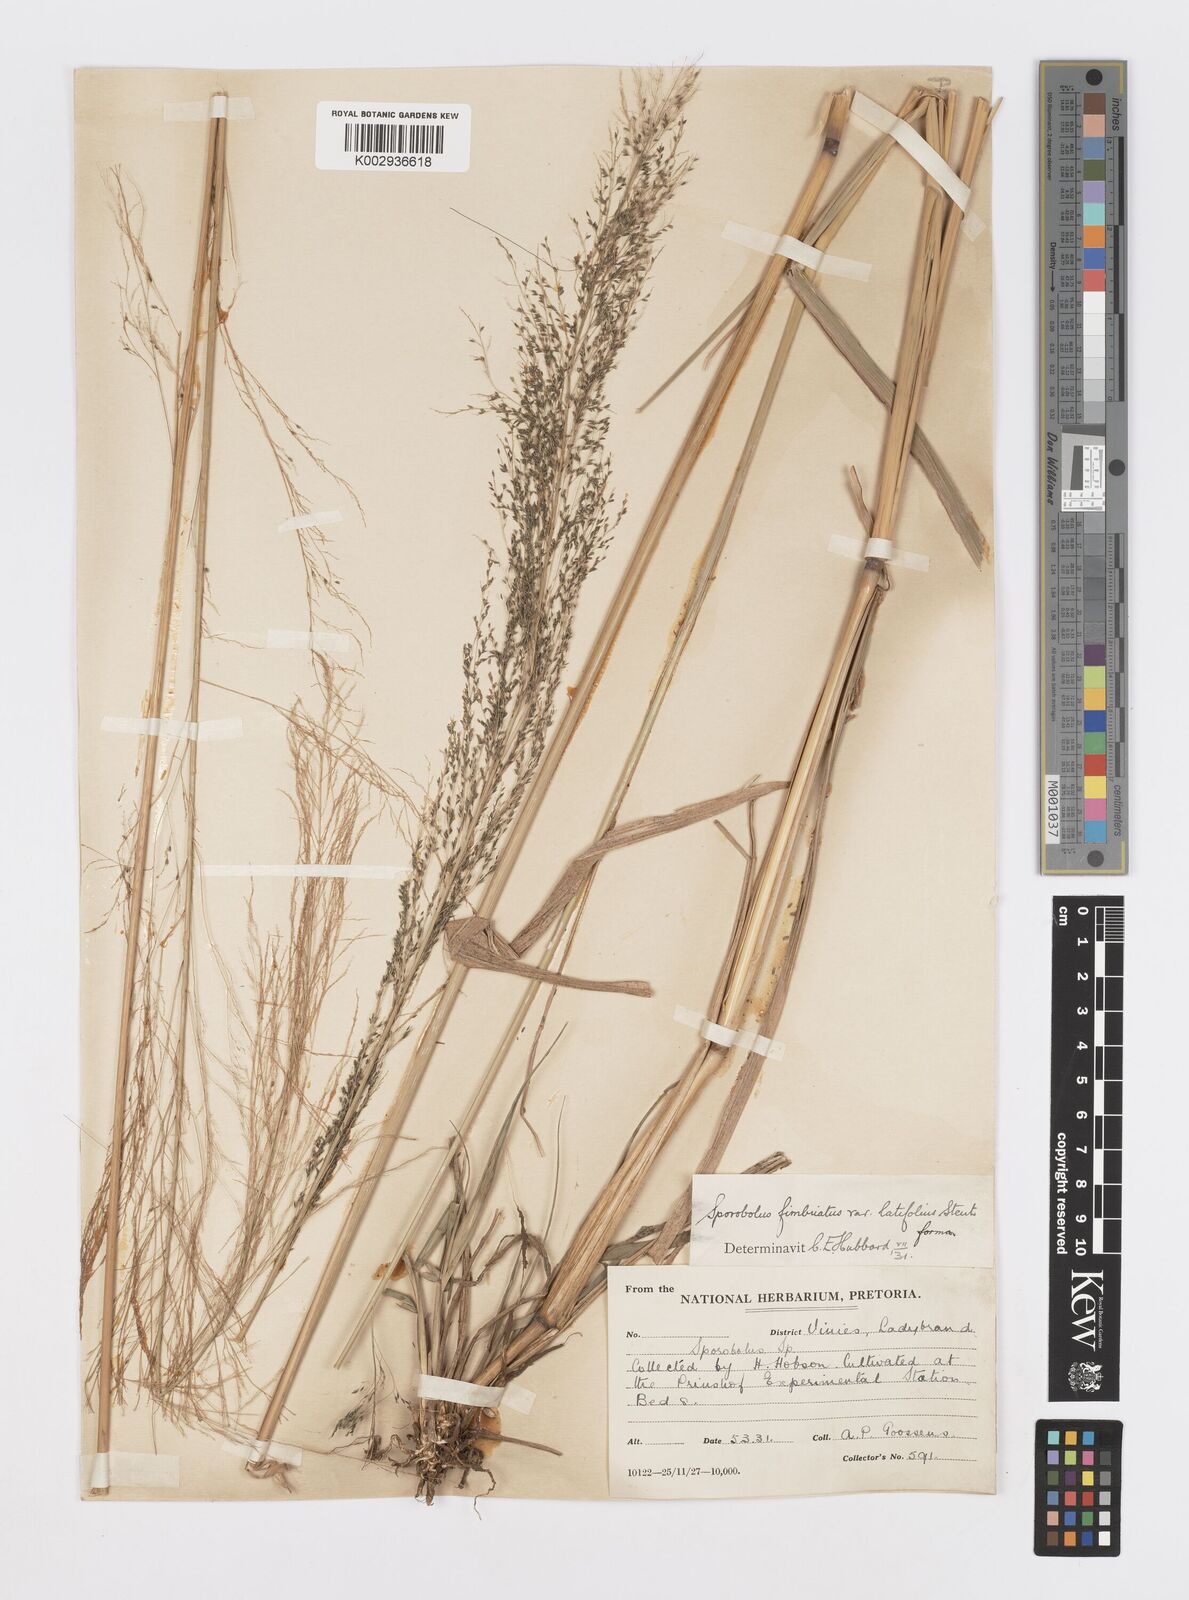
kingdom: Plantae
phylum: Tracheophyta
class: Liliopsida
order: Poales
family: Poaceae
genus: Sporobolus
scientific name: Sporobolus fimbriatus
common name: Fringed dropseed
